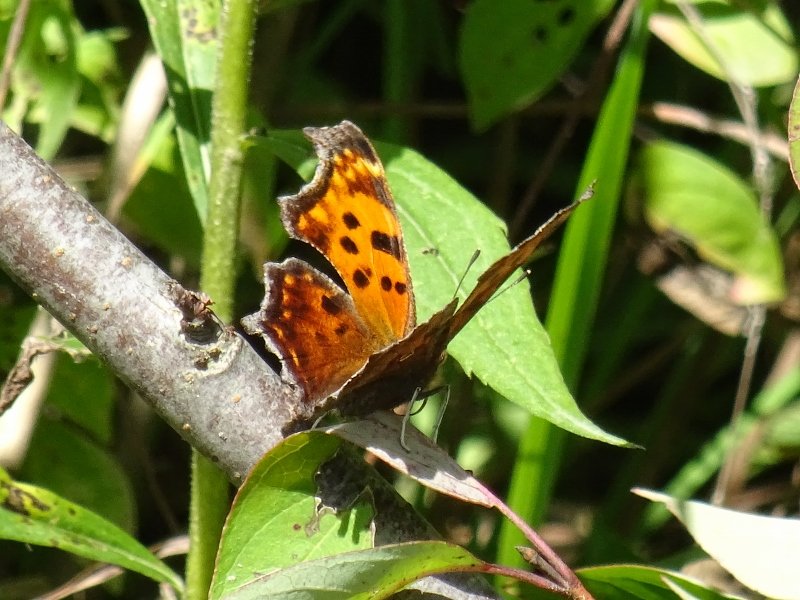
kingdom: Animalia
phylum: Arthropoda
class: Insecta
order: Lepidoptera
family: Nymphalidae
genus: Polygonia
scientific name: Polygonia comma
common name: Eastern Comma
